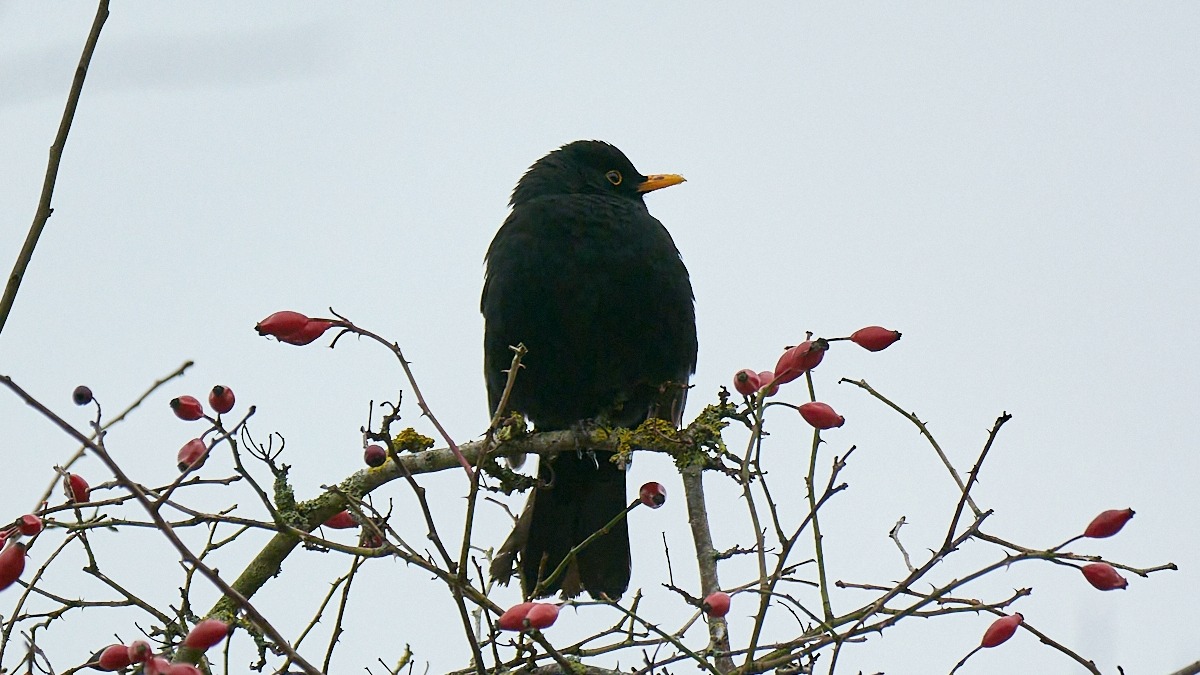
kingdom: Animalia
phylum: Chordata
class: Aves
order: Passeriformes
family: Turdidae
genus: Turdus
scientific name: Turdus merula
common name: Solsort
